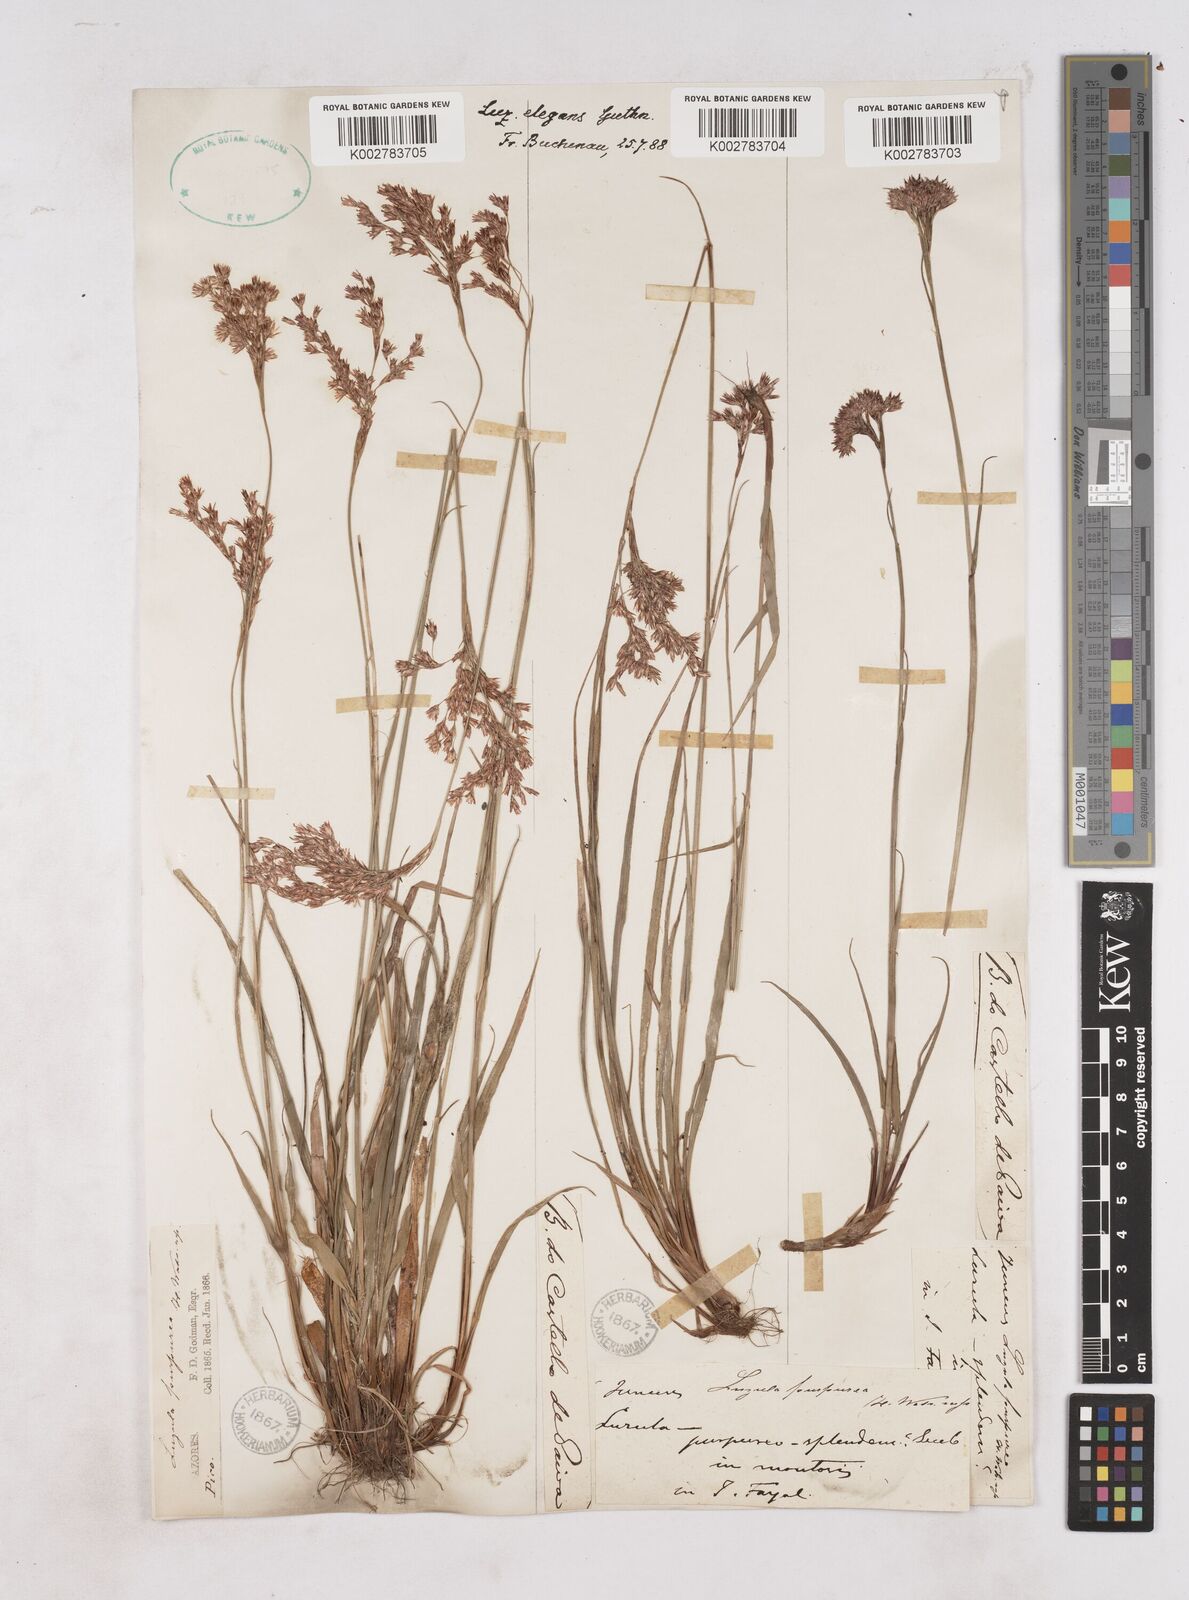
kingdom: Plantae
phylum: Tracheophyta
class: Liliopsida
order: Poales
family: Juncaceae
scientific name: Juncaceae
